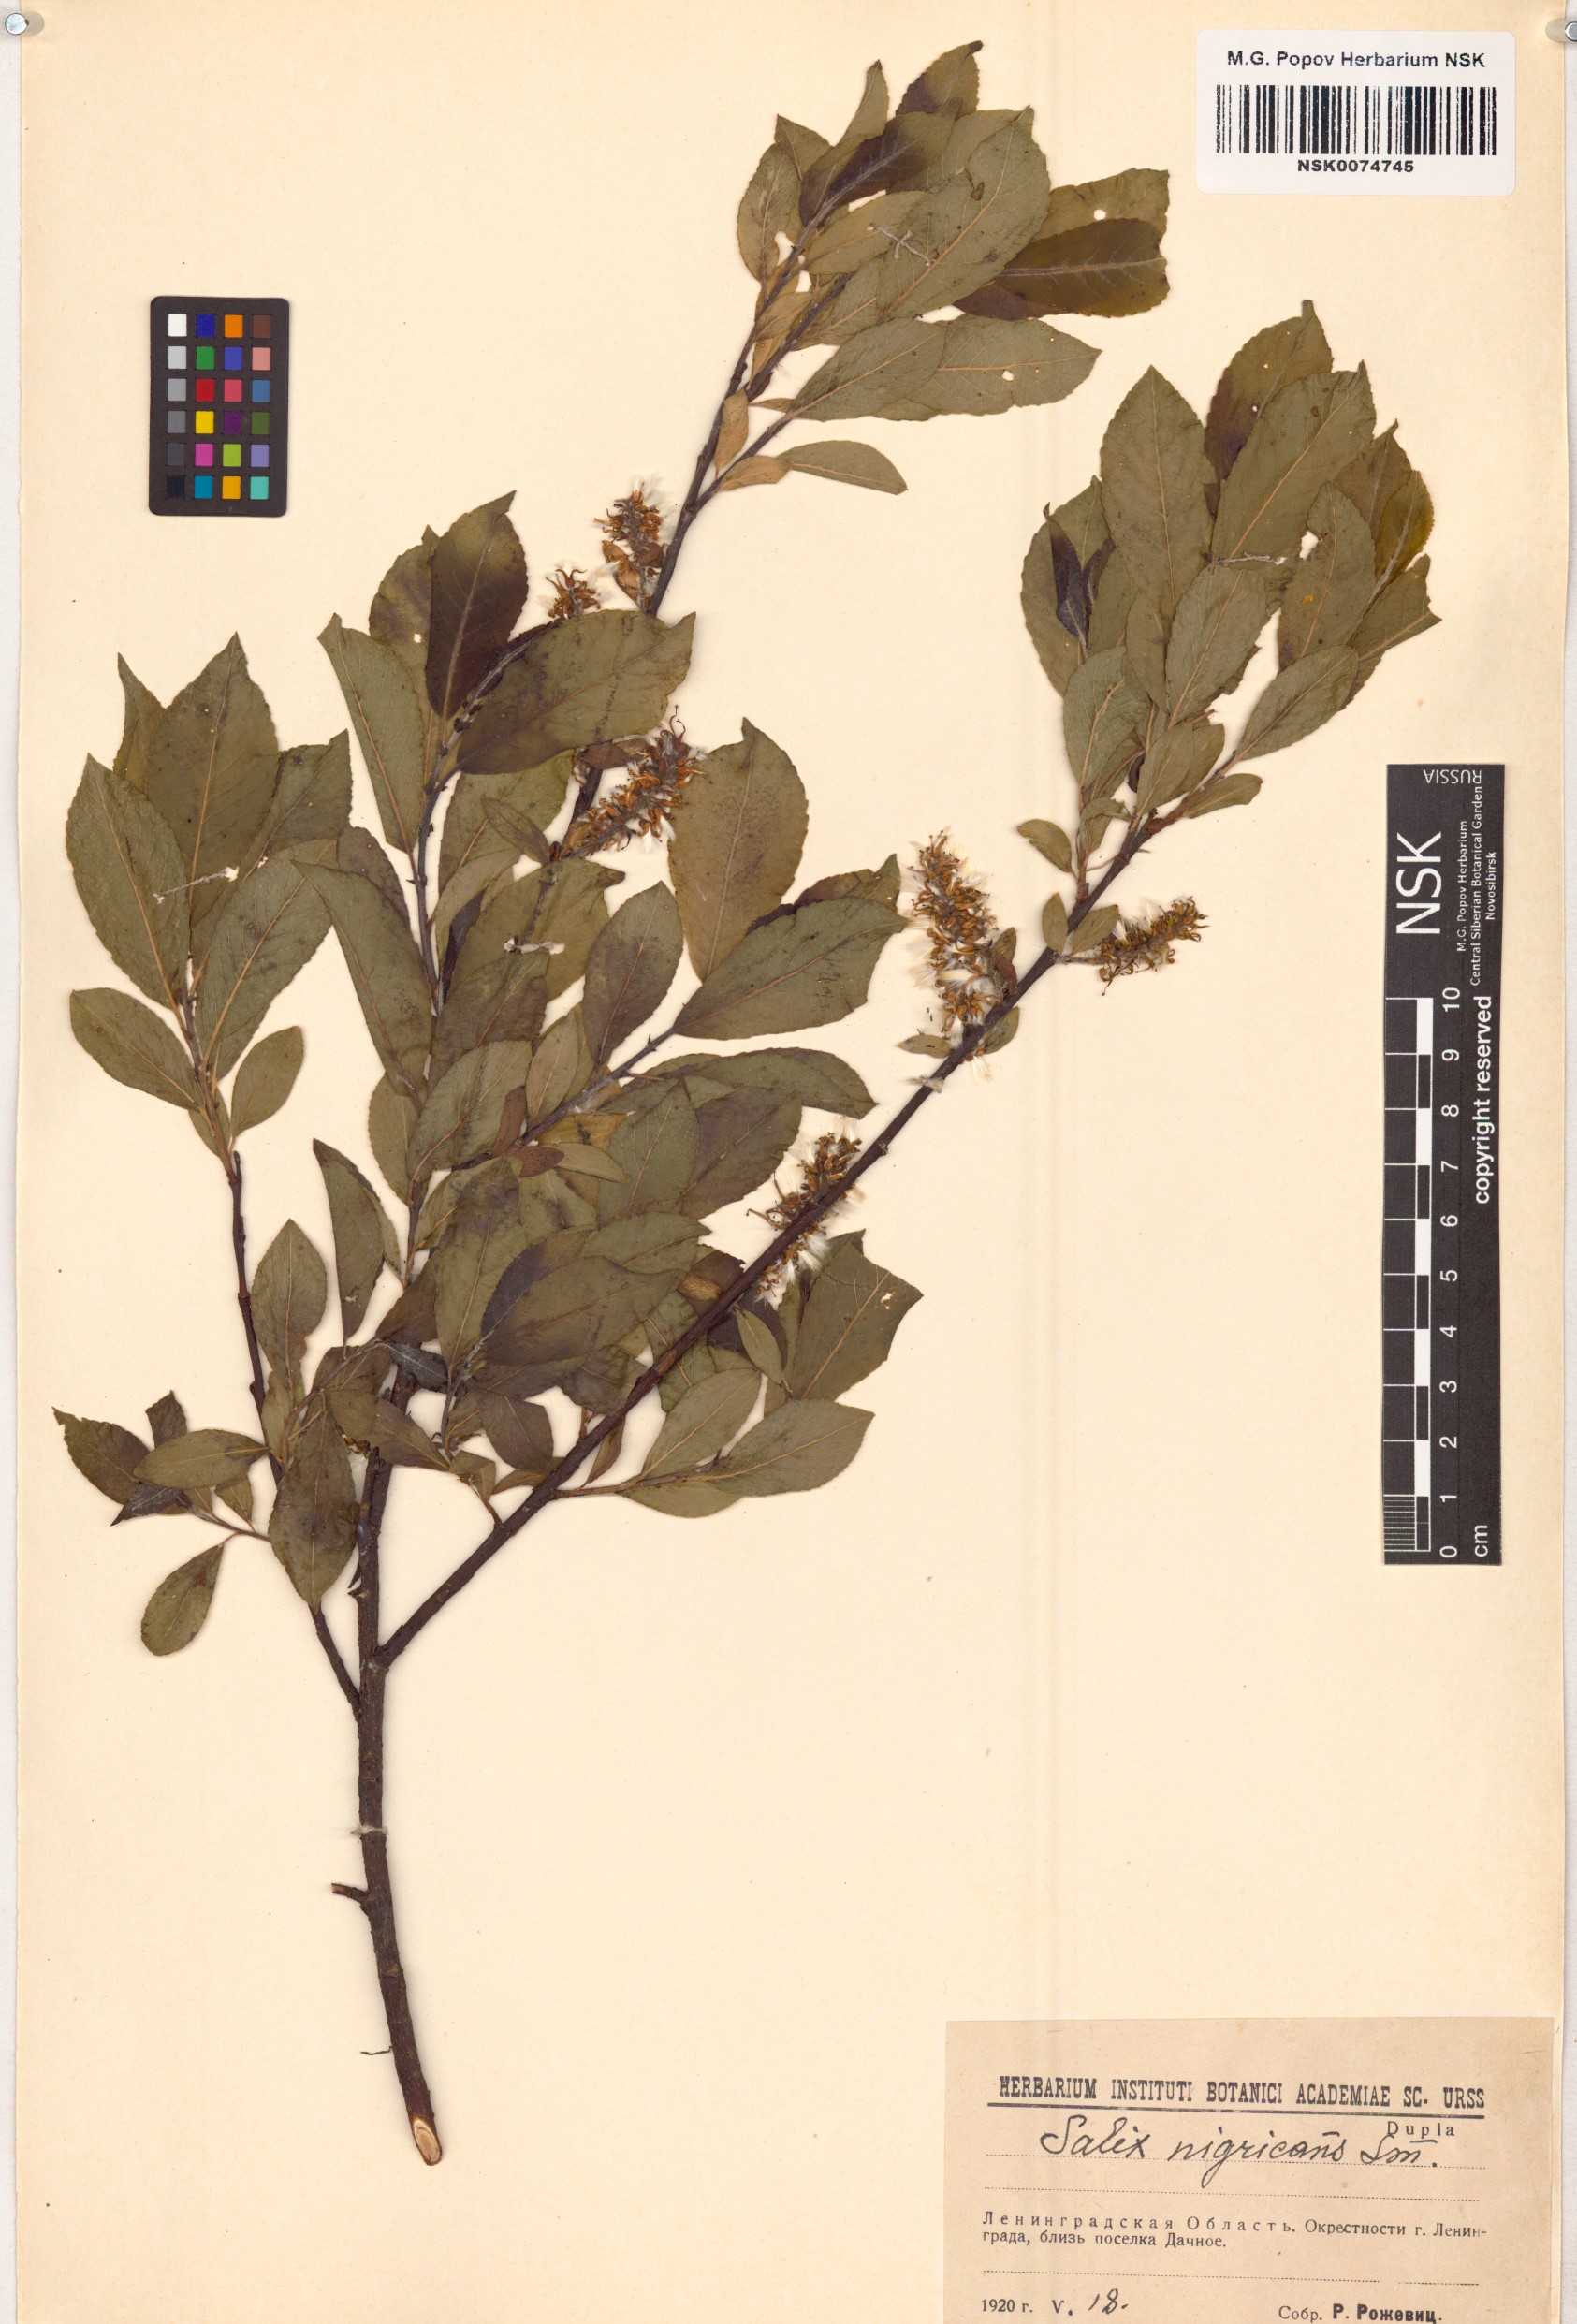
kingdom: Plantae
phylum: Tracheophyta
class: Magnoliopsida
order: Malpighiales
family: Salicaceae
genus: Salix
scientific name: Salix myrsinifolia
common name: Dark-leaved willow
